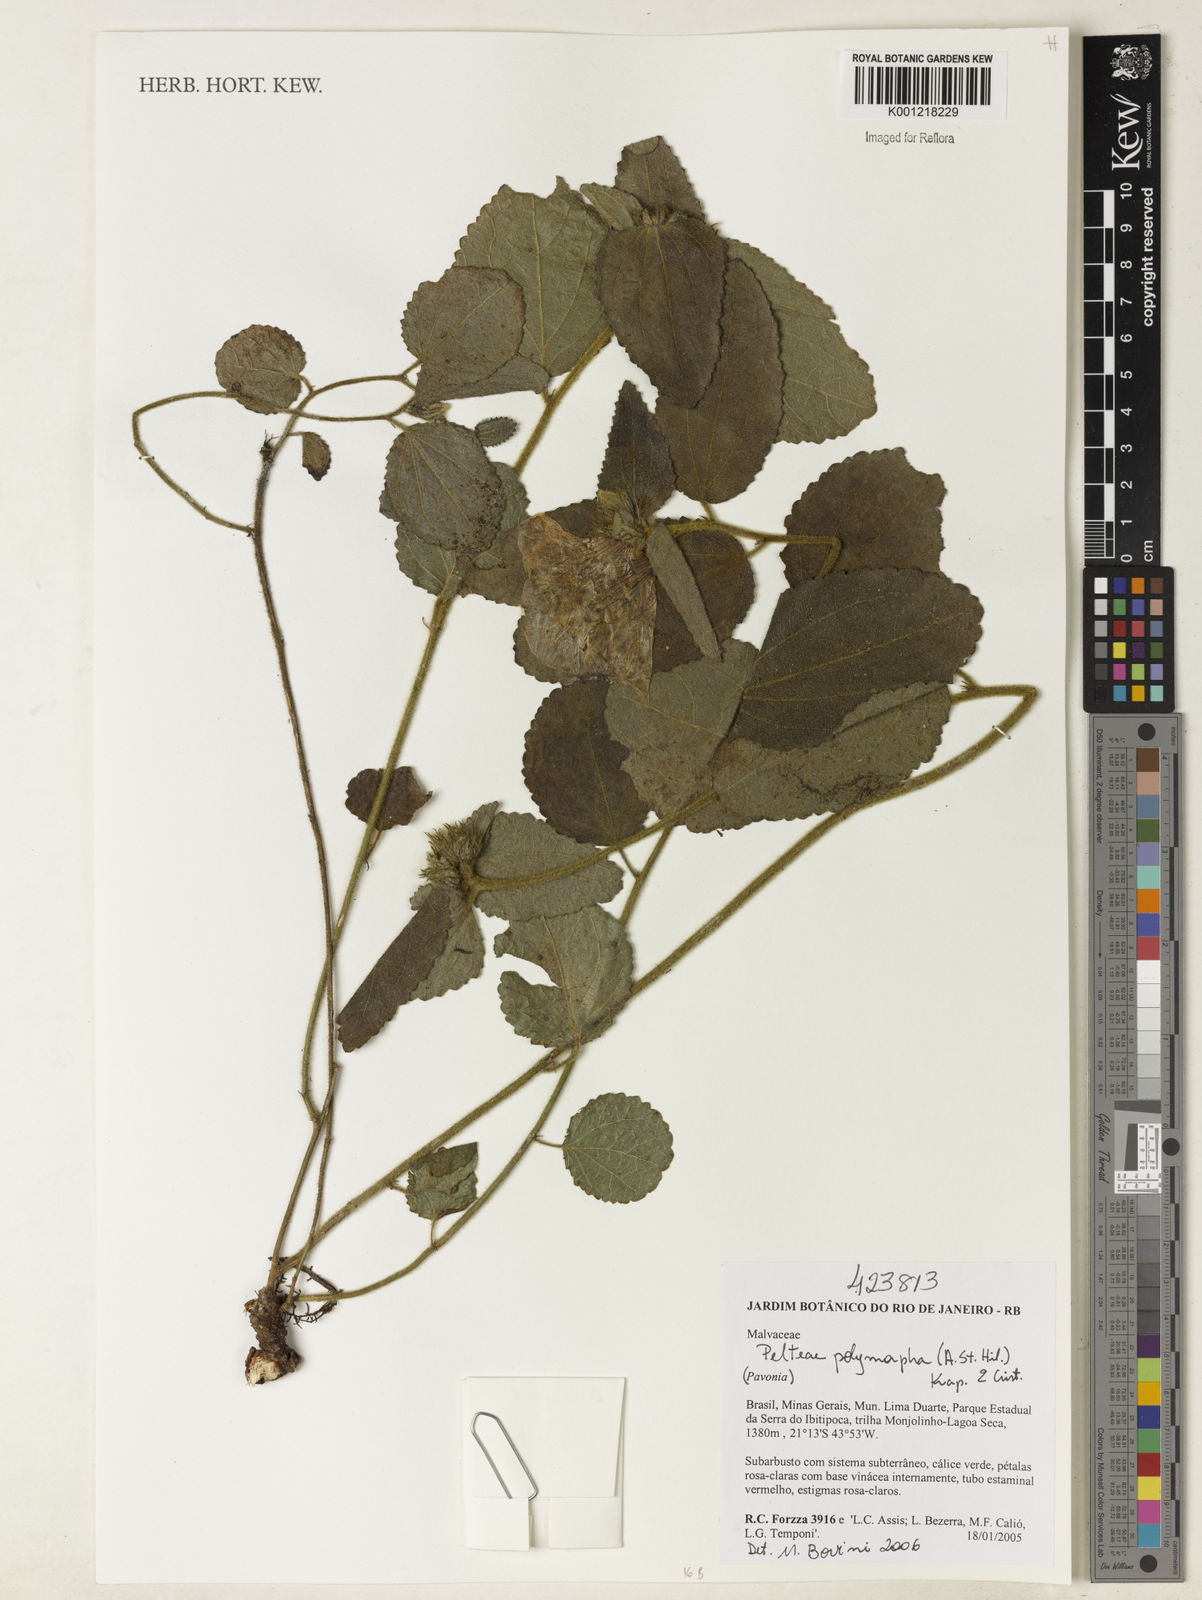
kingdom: Plantae
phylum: Tracheophyta
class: Magnoliopsida
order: Malvales
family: Malvaceae
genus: Peltaea
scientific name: Peltaea
